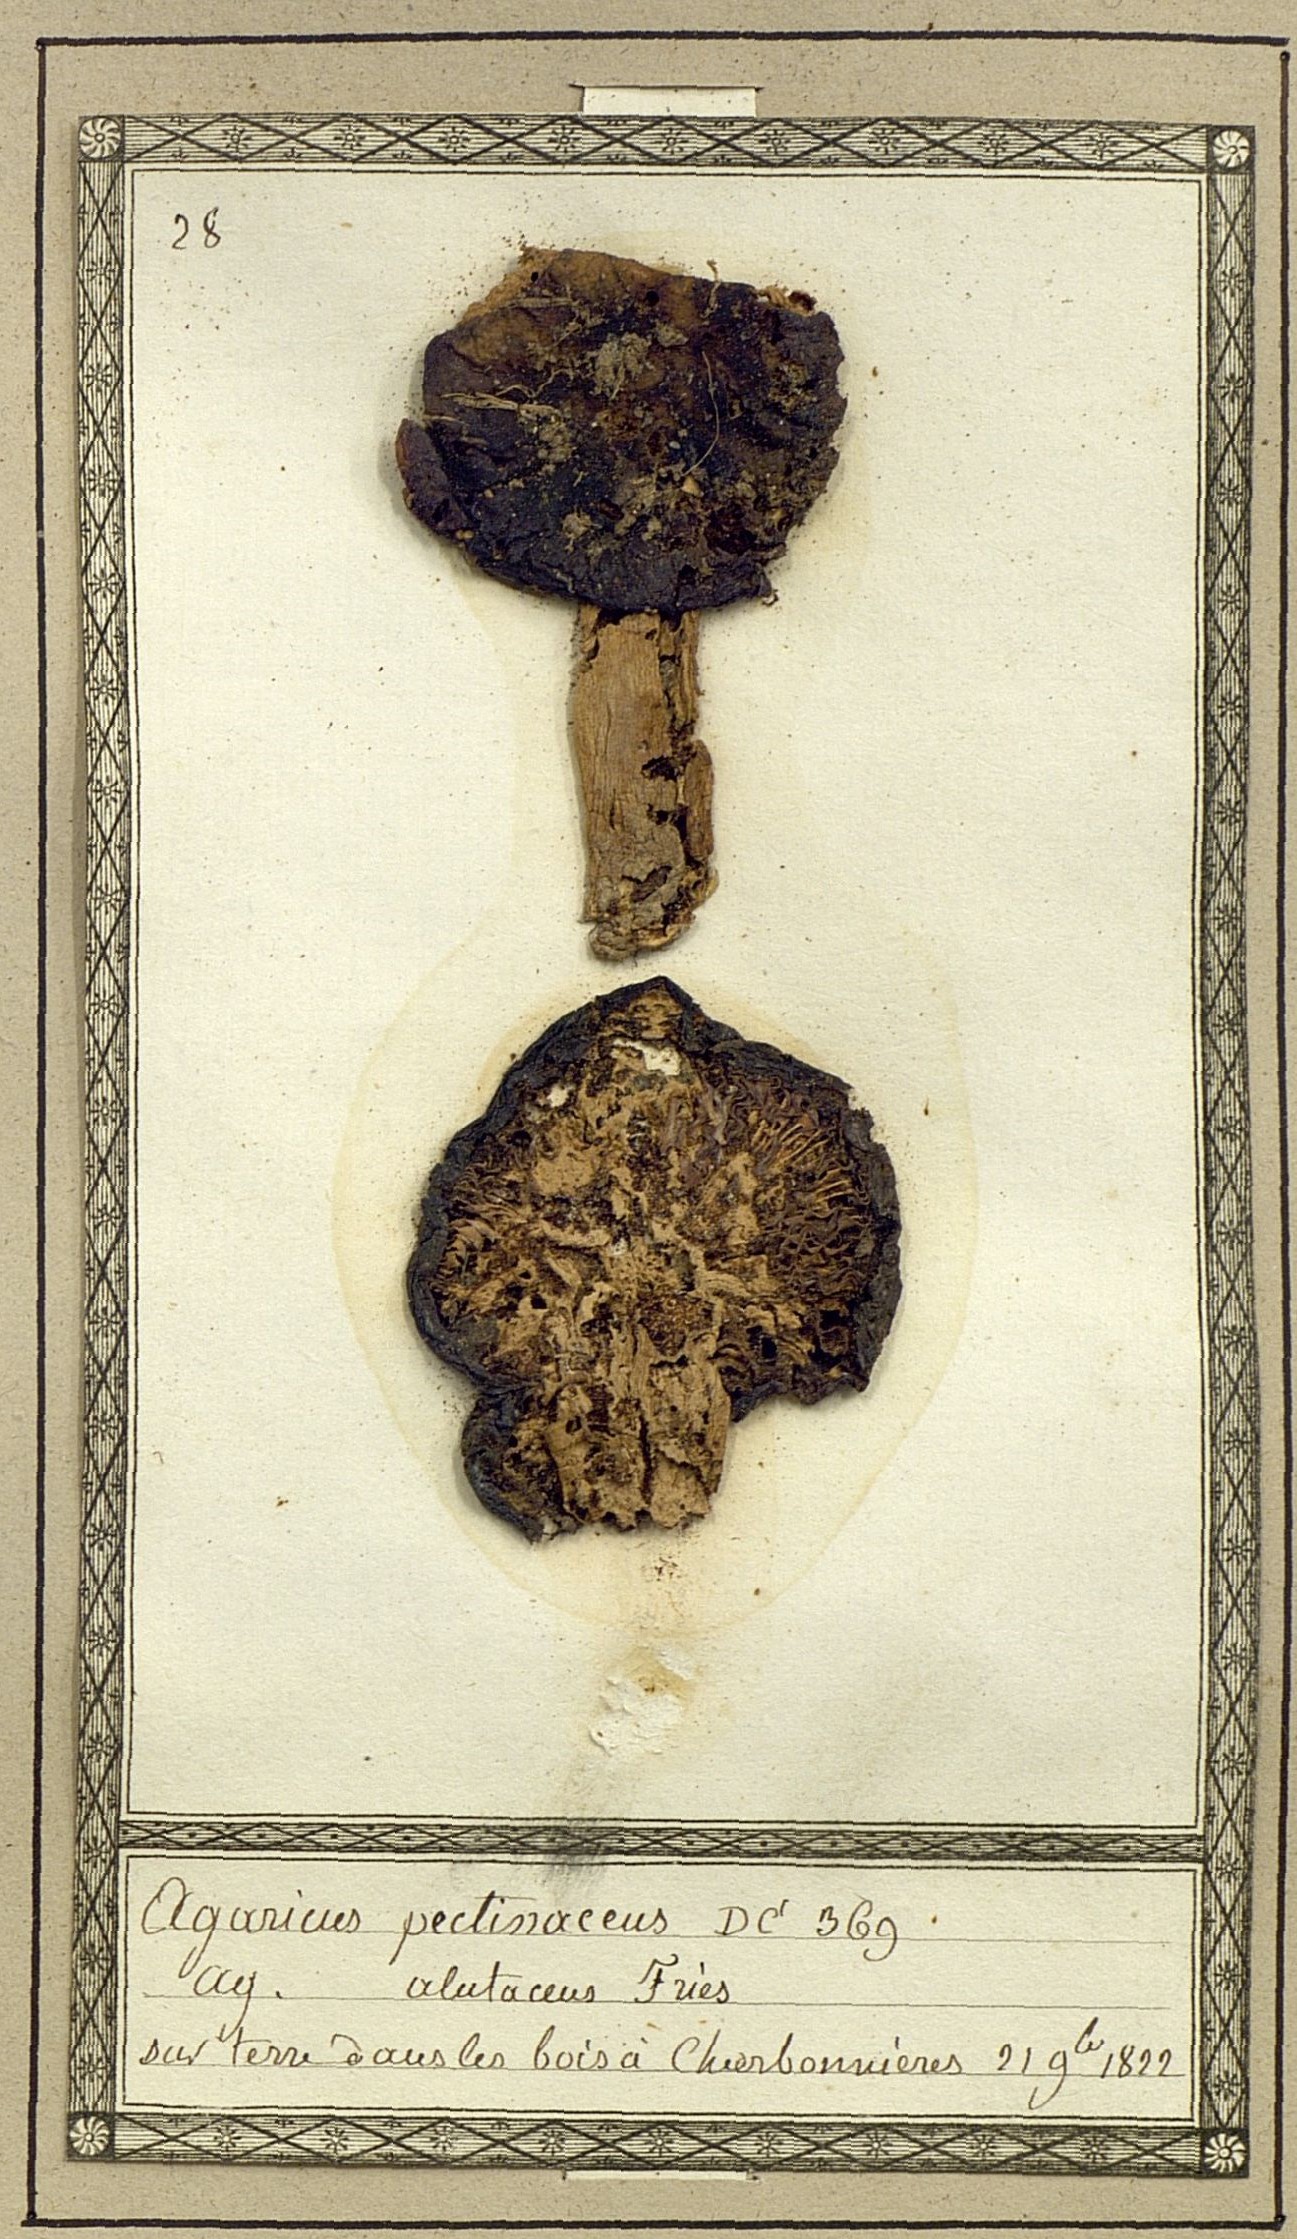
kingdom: Fungi
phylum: Basidiomycota
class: Agaricomycetes
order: Agaricales
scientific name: Agaricales
